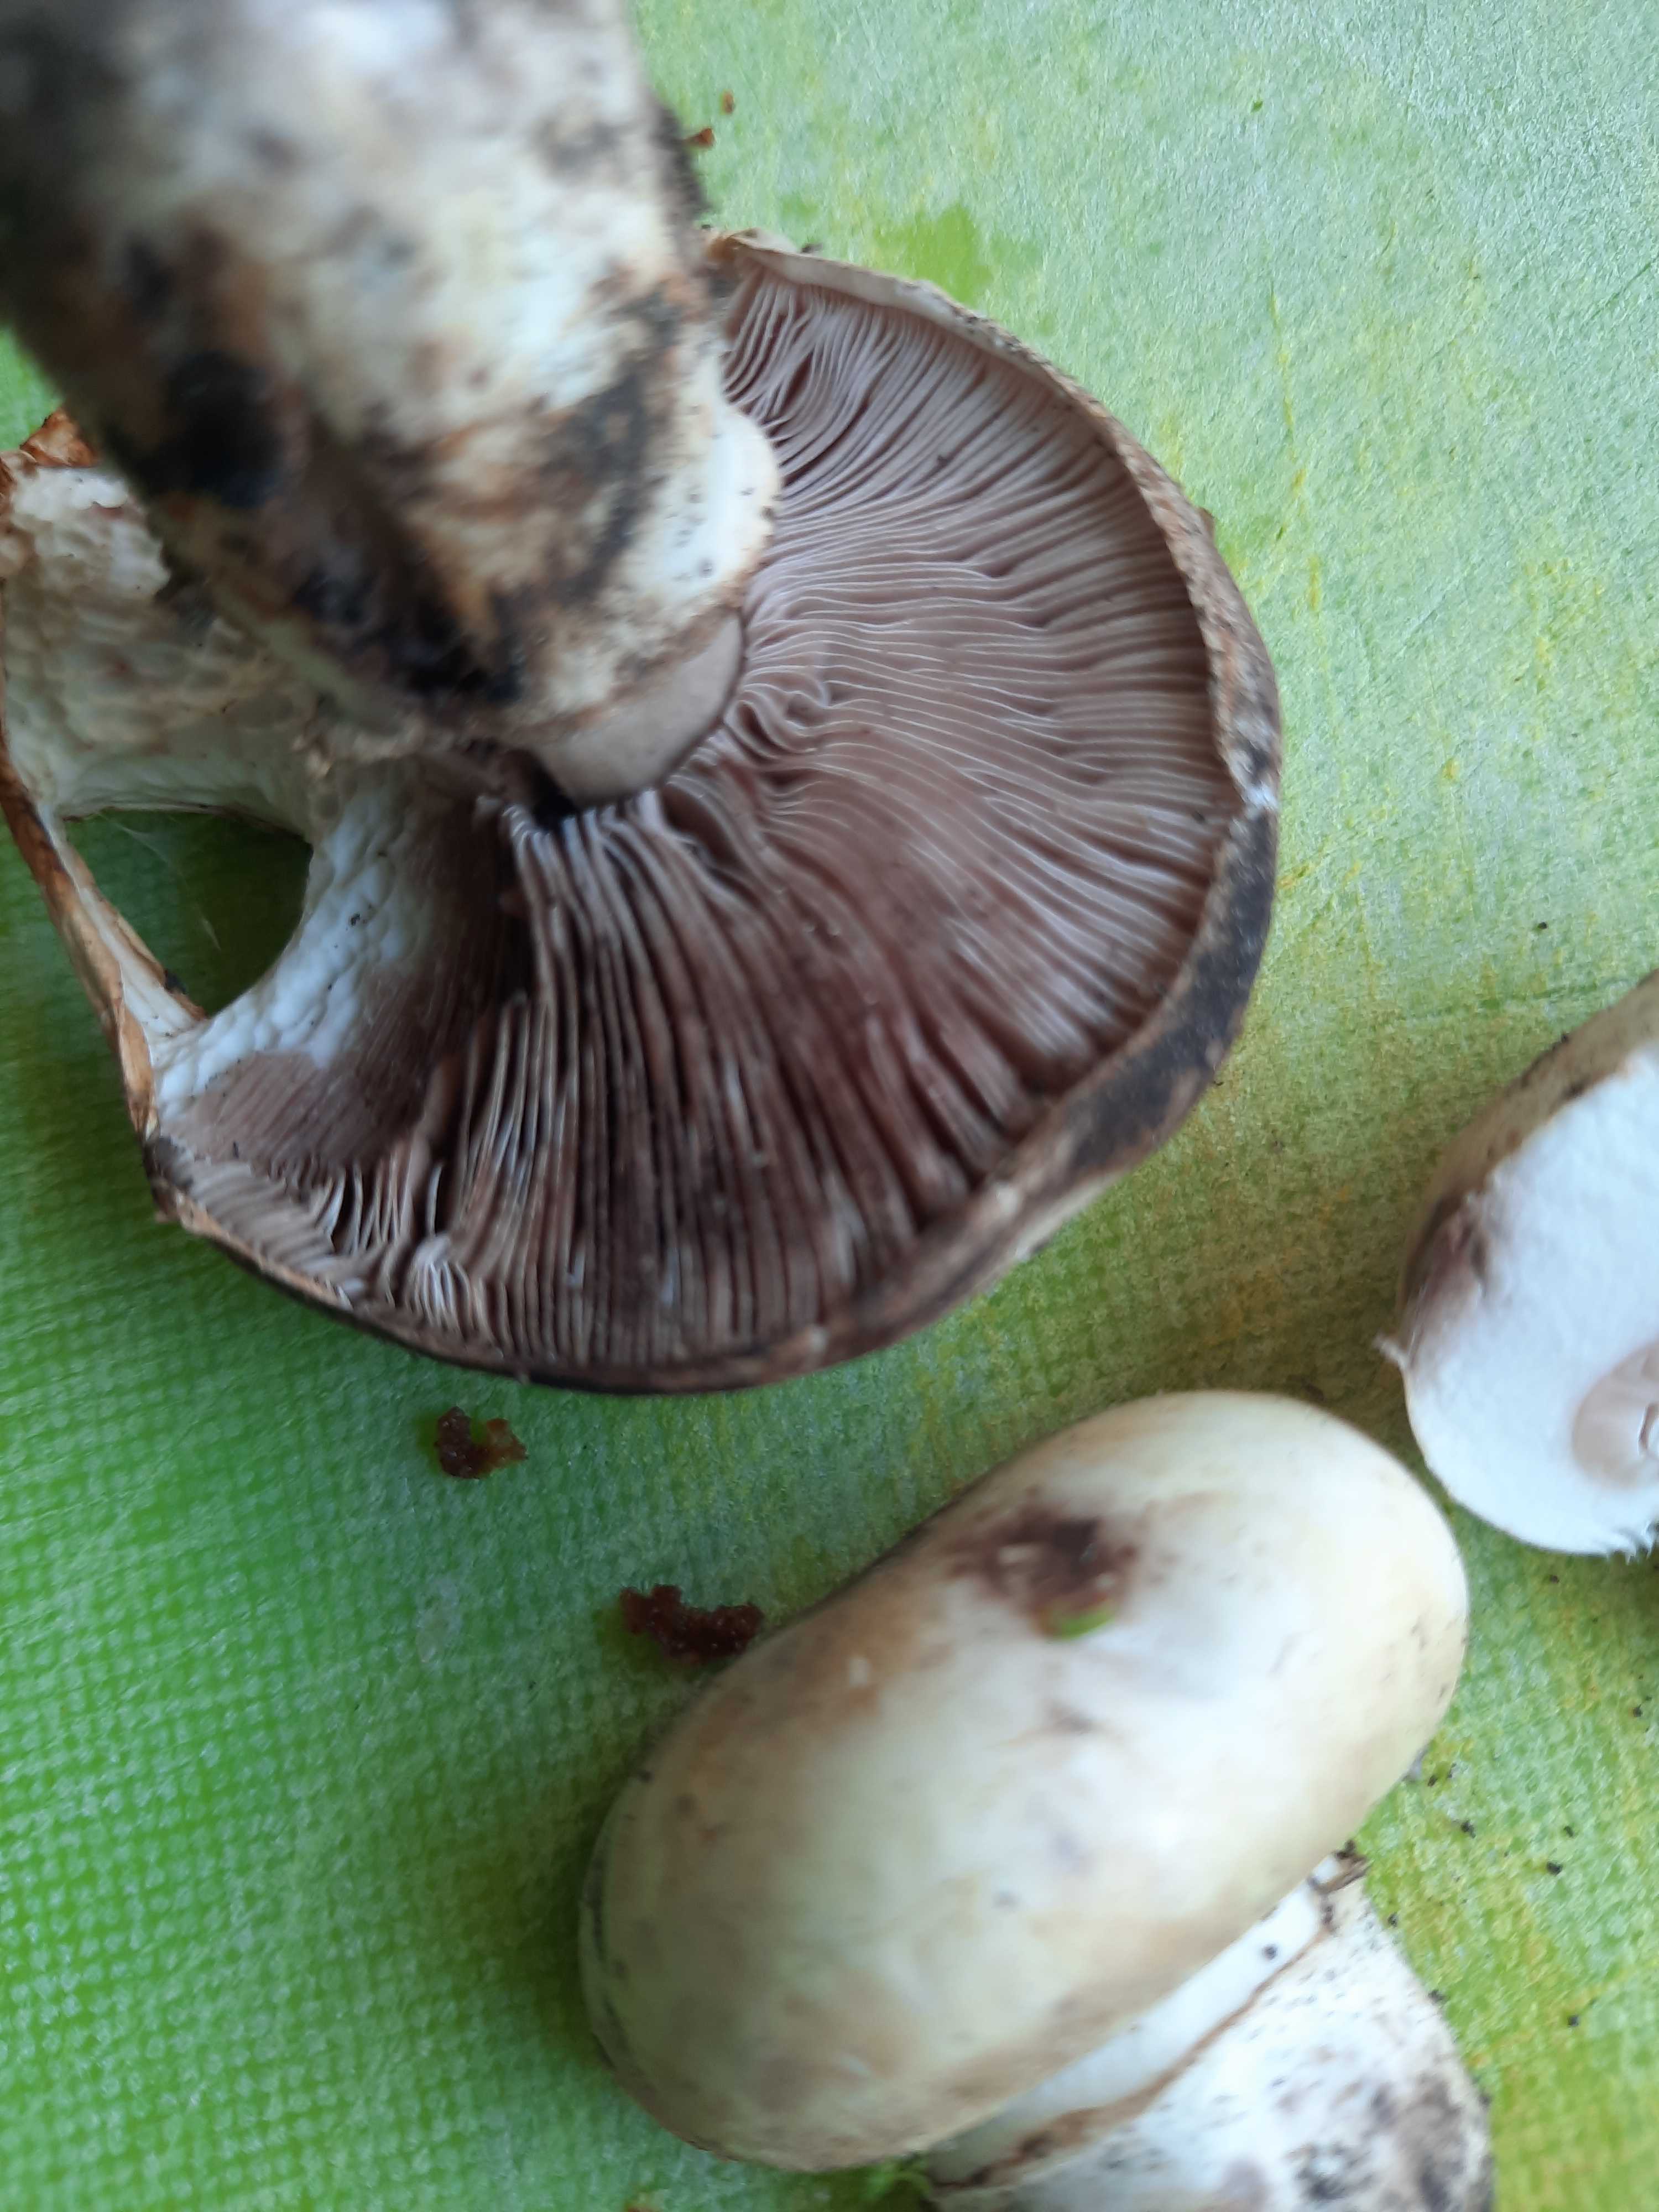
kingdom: Fungi
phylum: Basidiomycota
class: Agaricomycetes
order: Agaricales
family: Agaricaceae
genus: Agaricus
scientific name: Agaricus
